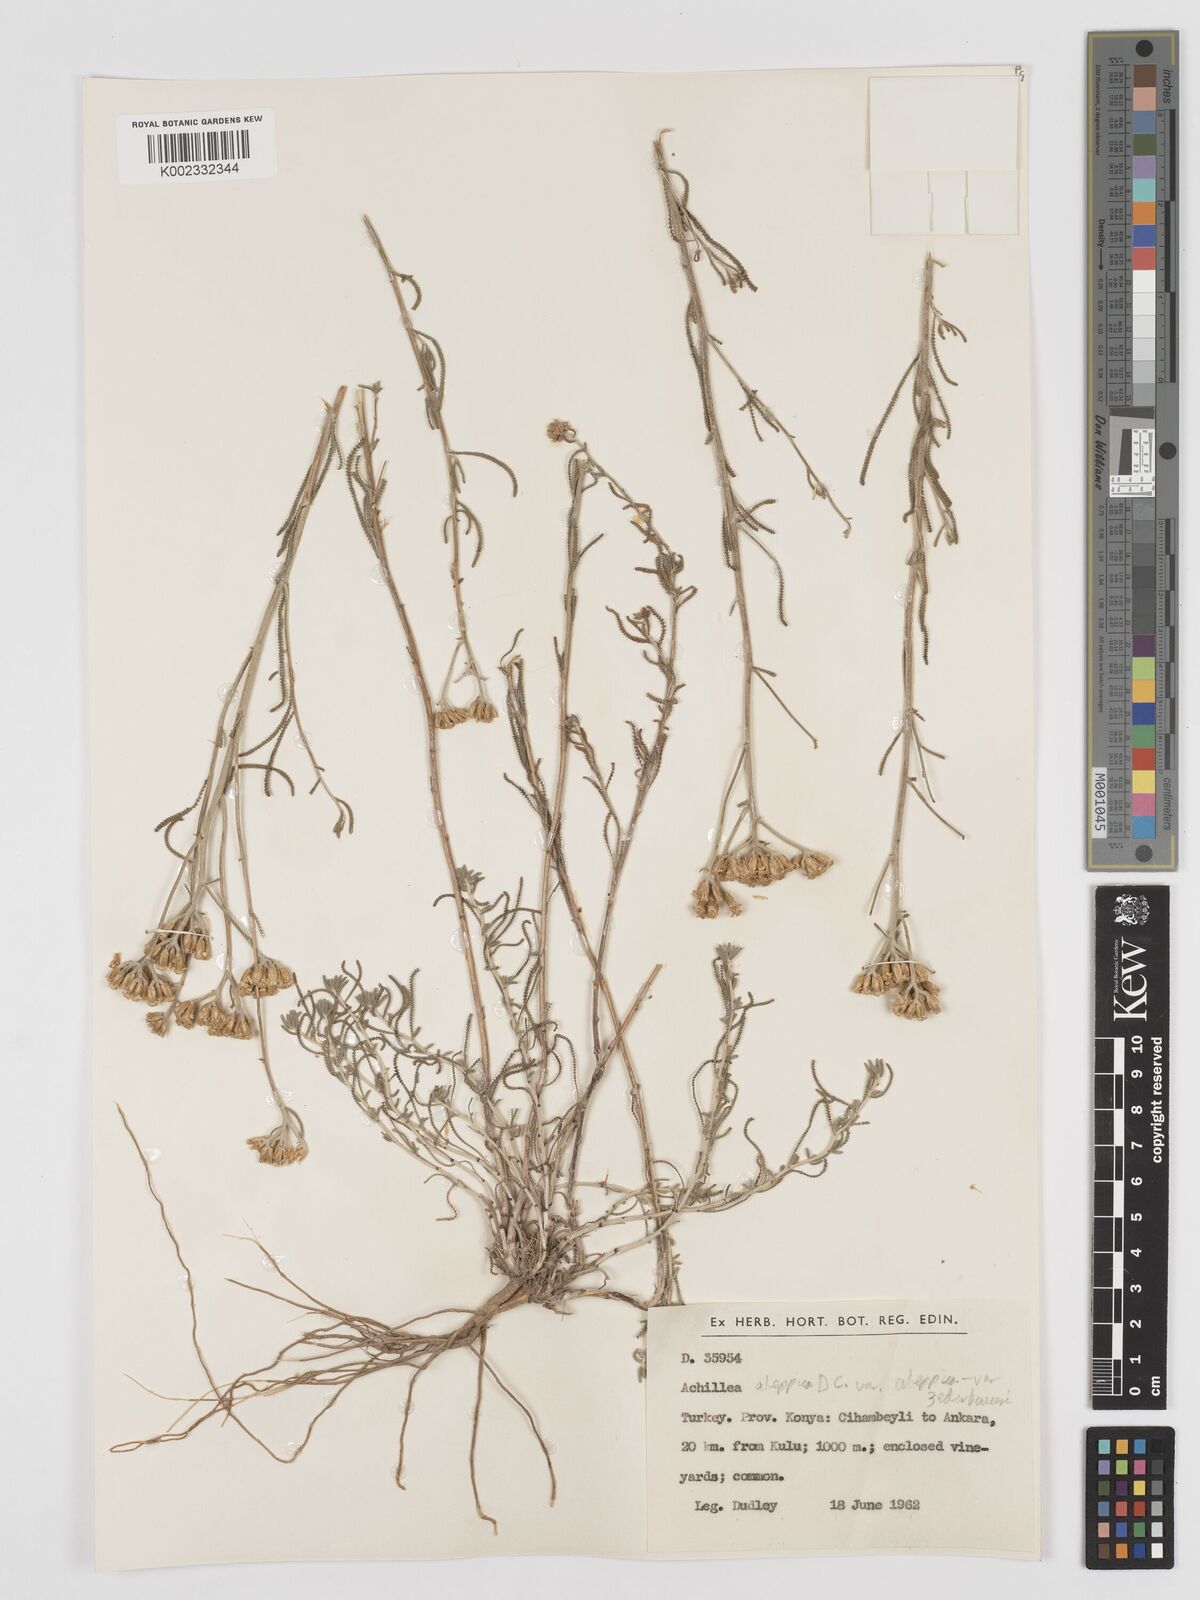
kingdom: Plantae
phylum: Tracheophyta
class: Magnoliopsida
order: Asterales
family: Asteraceae
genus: Achillea
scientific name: Achillea aleppica
